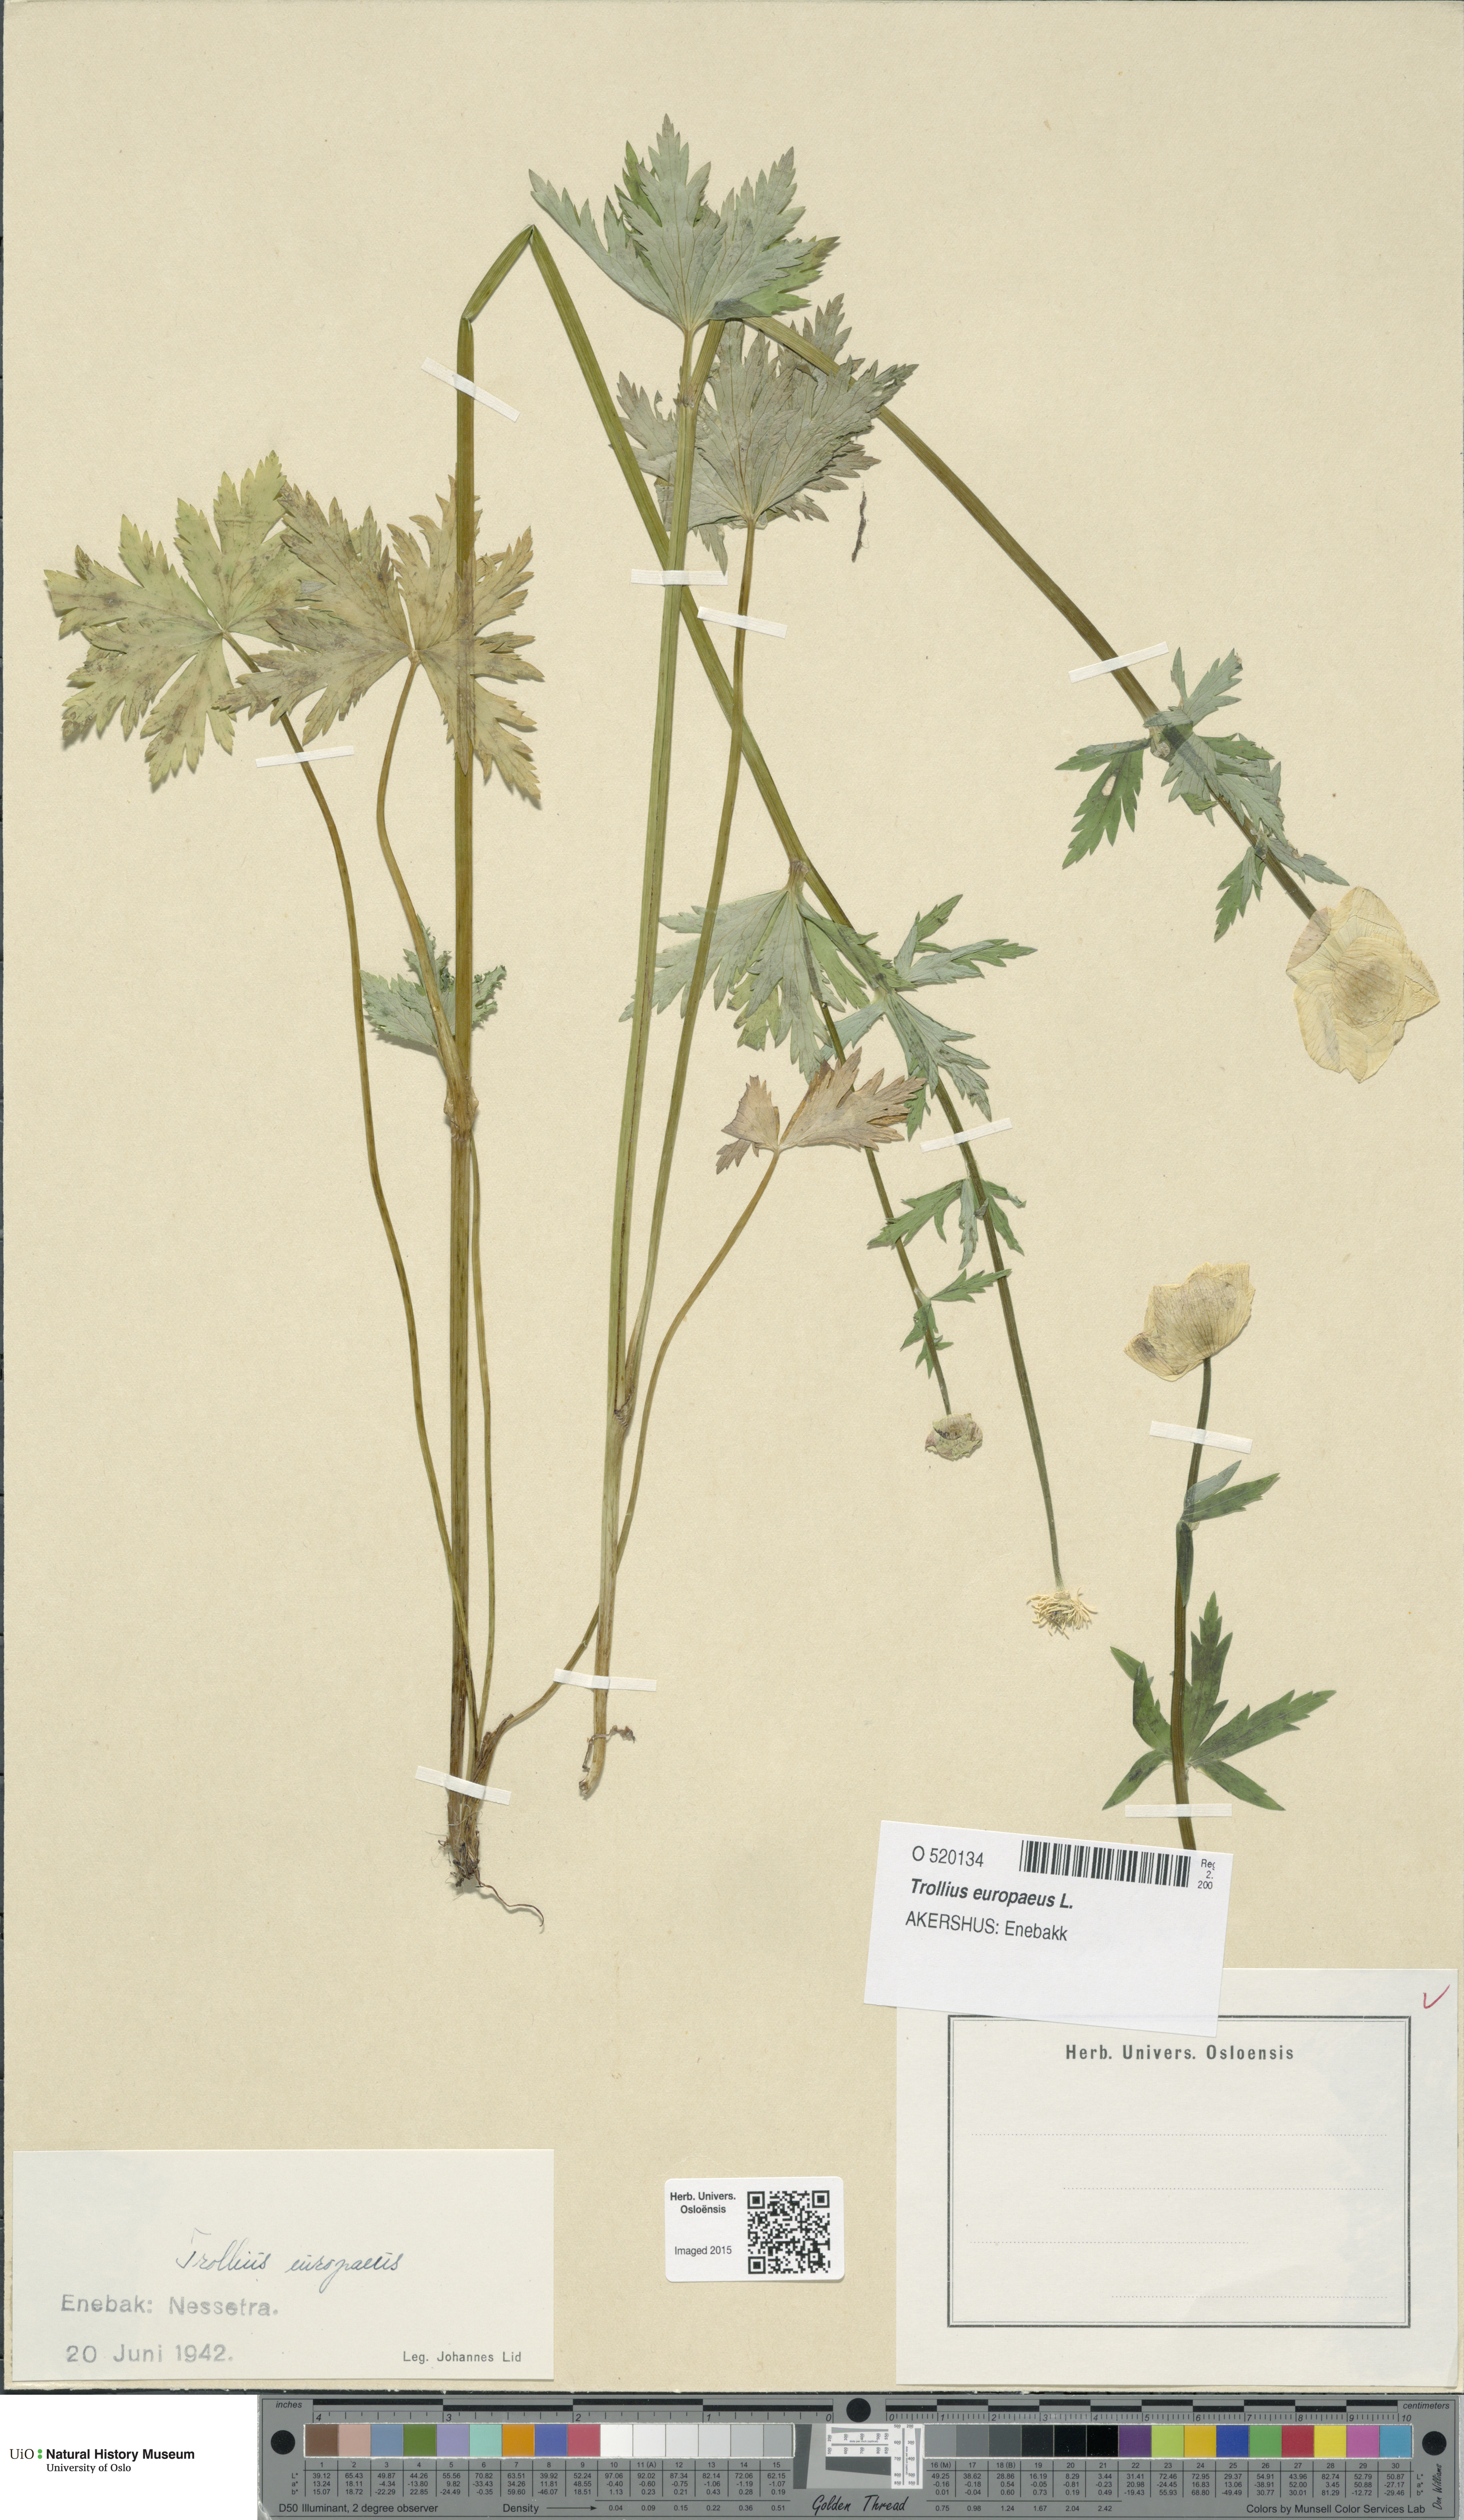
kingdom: Plantae
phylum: Tracheophyta
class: Magnoliopsida
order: Ranunculales
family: Ranunculaceae
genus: Trollius
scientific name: Trollius europaeus
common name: European globeflower
